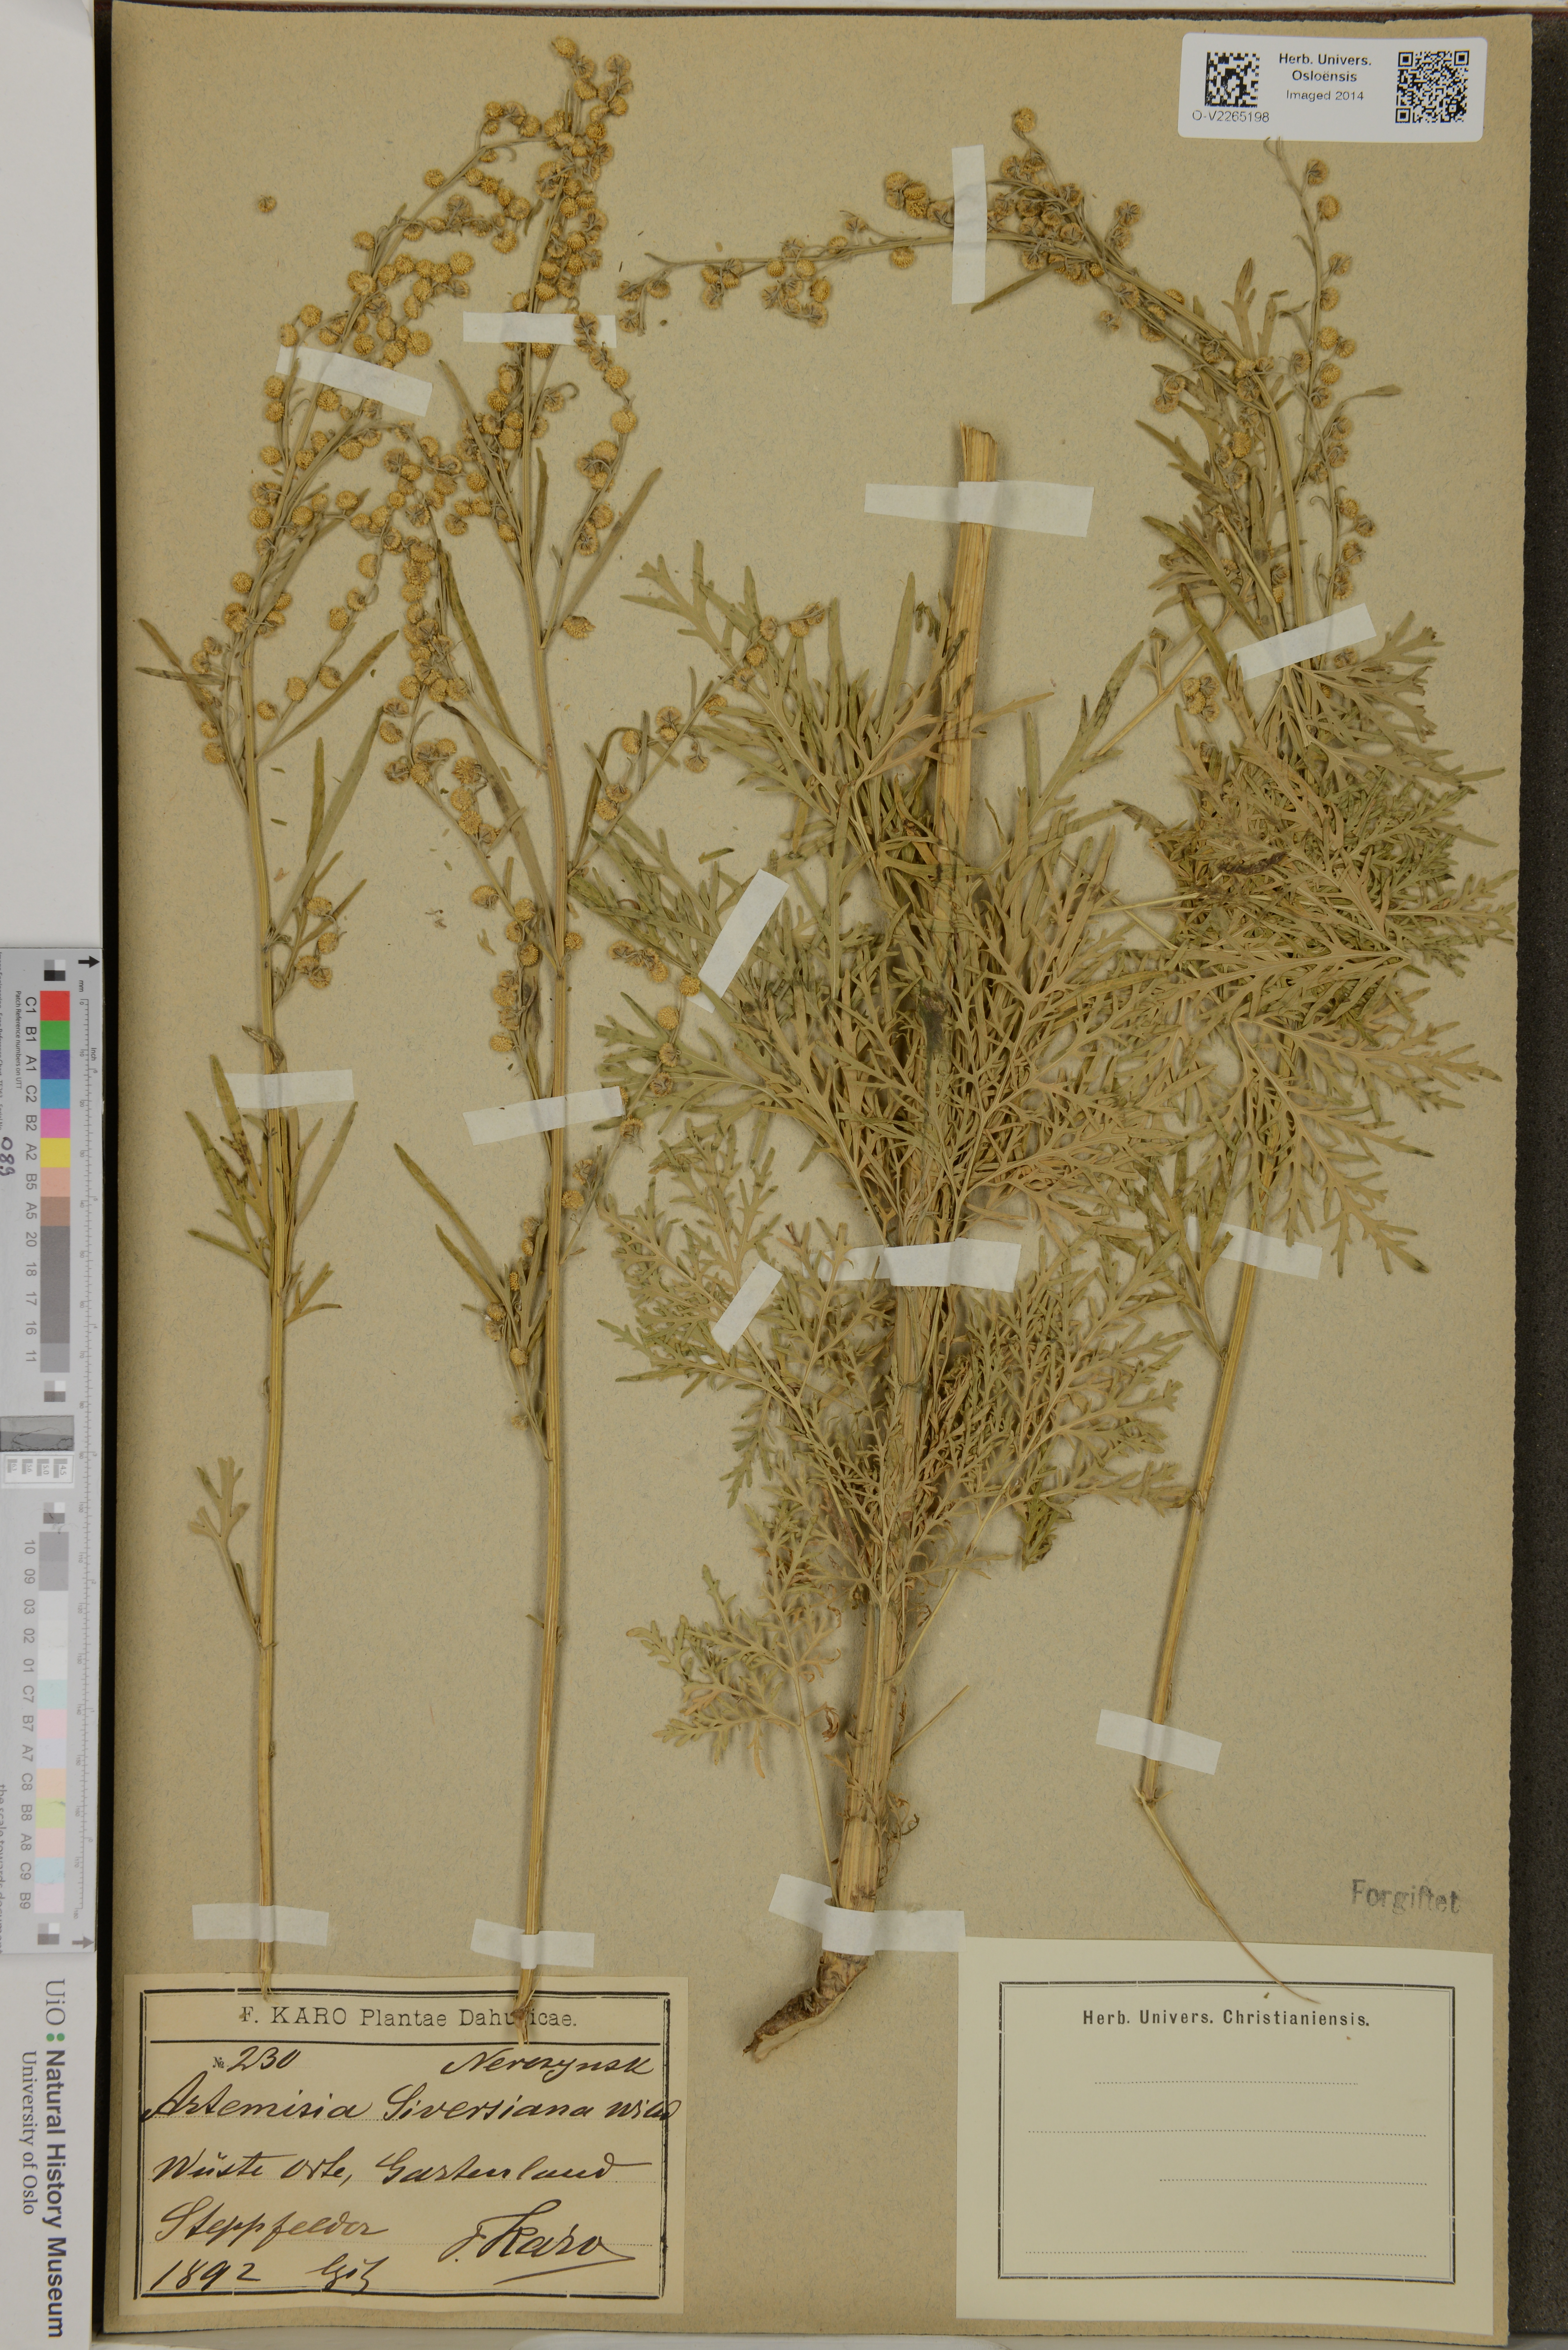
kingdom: Plantae
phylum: Tracheophyta
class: Magnoliopsida
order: Asterales
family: Asteraceae
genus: Artemisia
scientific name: Artemisia sieversiana
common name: Sieversian wormwood
